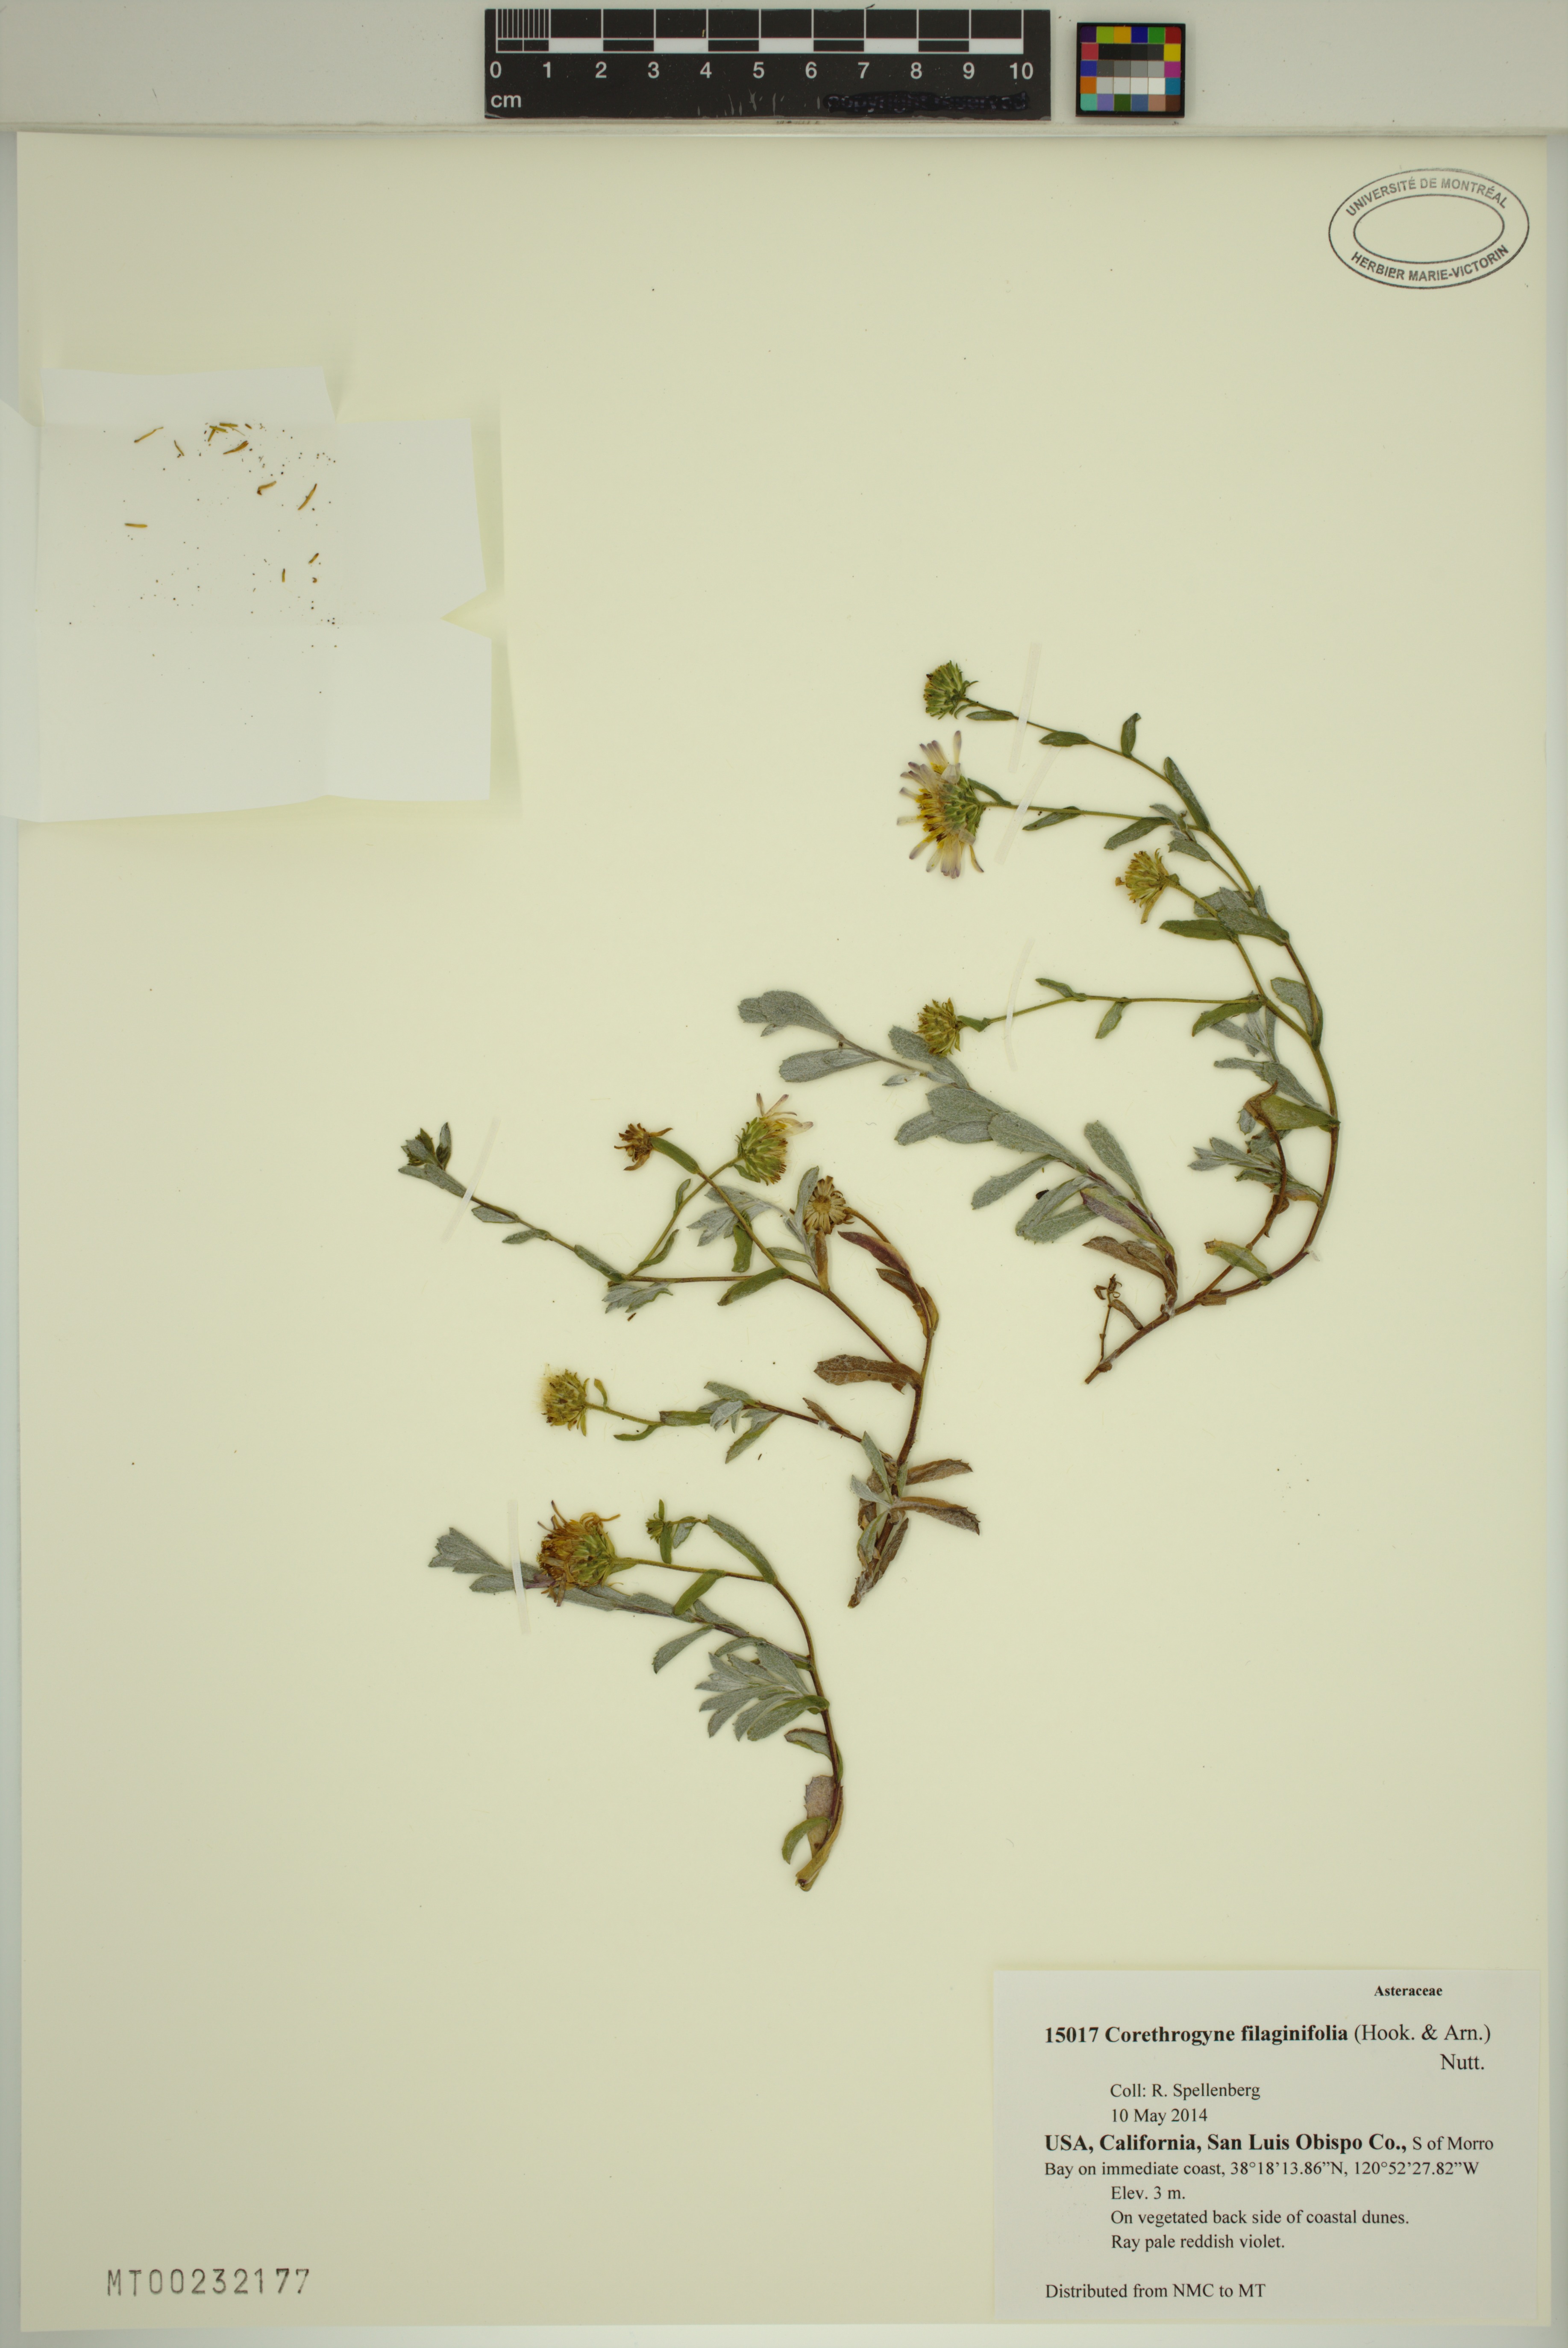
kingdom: Plantae
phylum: Tracheophyta
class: Magnoliopsida
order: Asterales
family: Asteraceae
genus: Corethrogyne
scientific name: Corethrogyne filaginifolia
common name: Sand-aster
